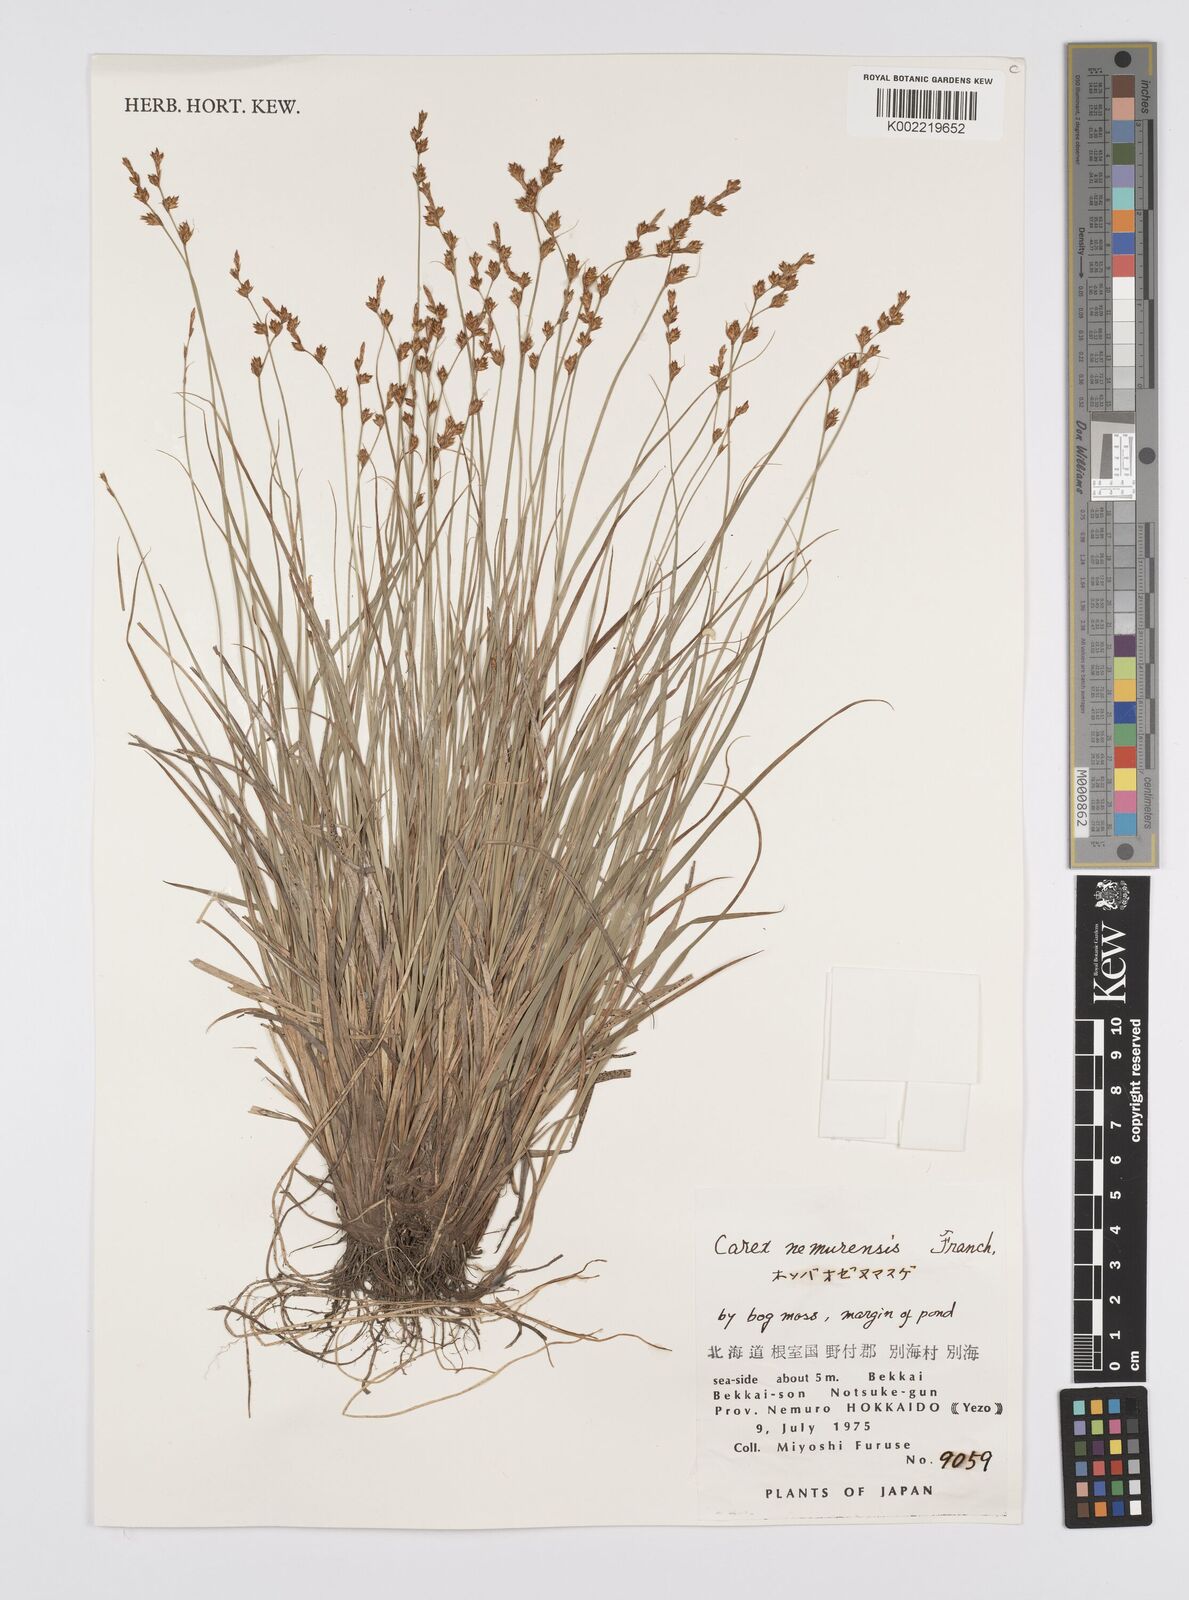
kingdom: Plantae
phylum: Tracheophyta
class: Liliopsida
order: Poales
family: Cyperaceae
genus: Carex
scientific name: Carex traiziscana
